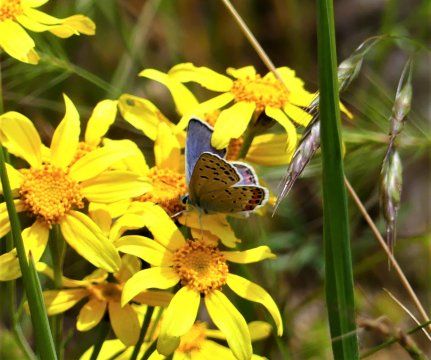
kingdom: Animalia
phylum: Arthropoda
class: Insecta
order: Lepidoptera
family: Lycaenidae
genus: Plebejus
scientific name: Plebejus lupini
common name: Lupine Blue
